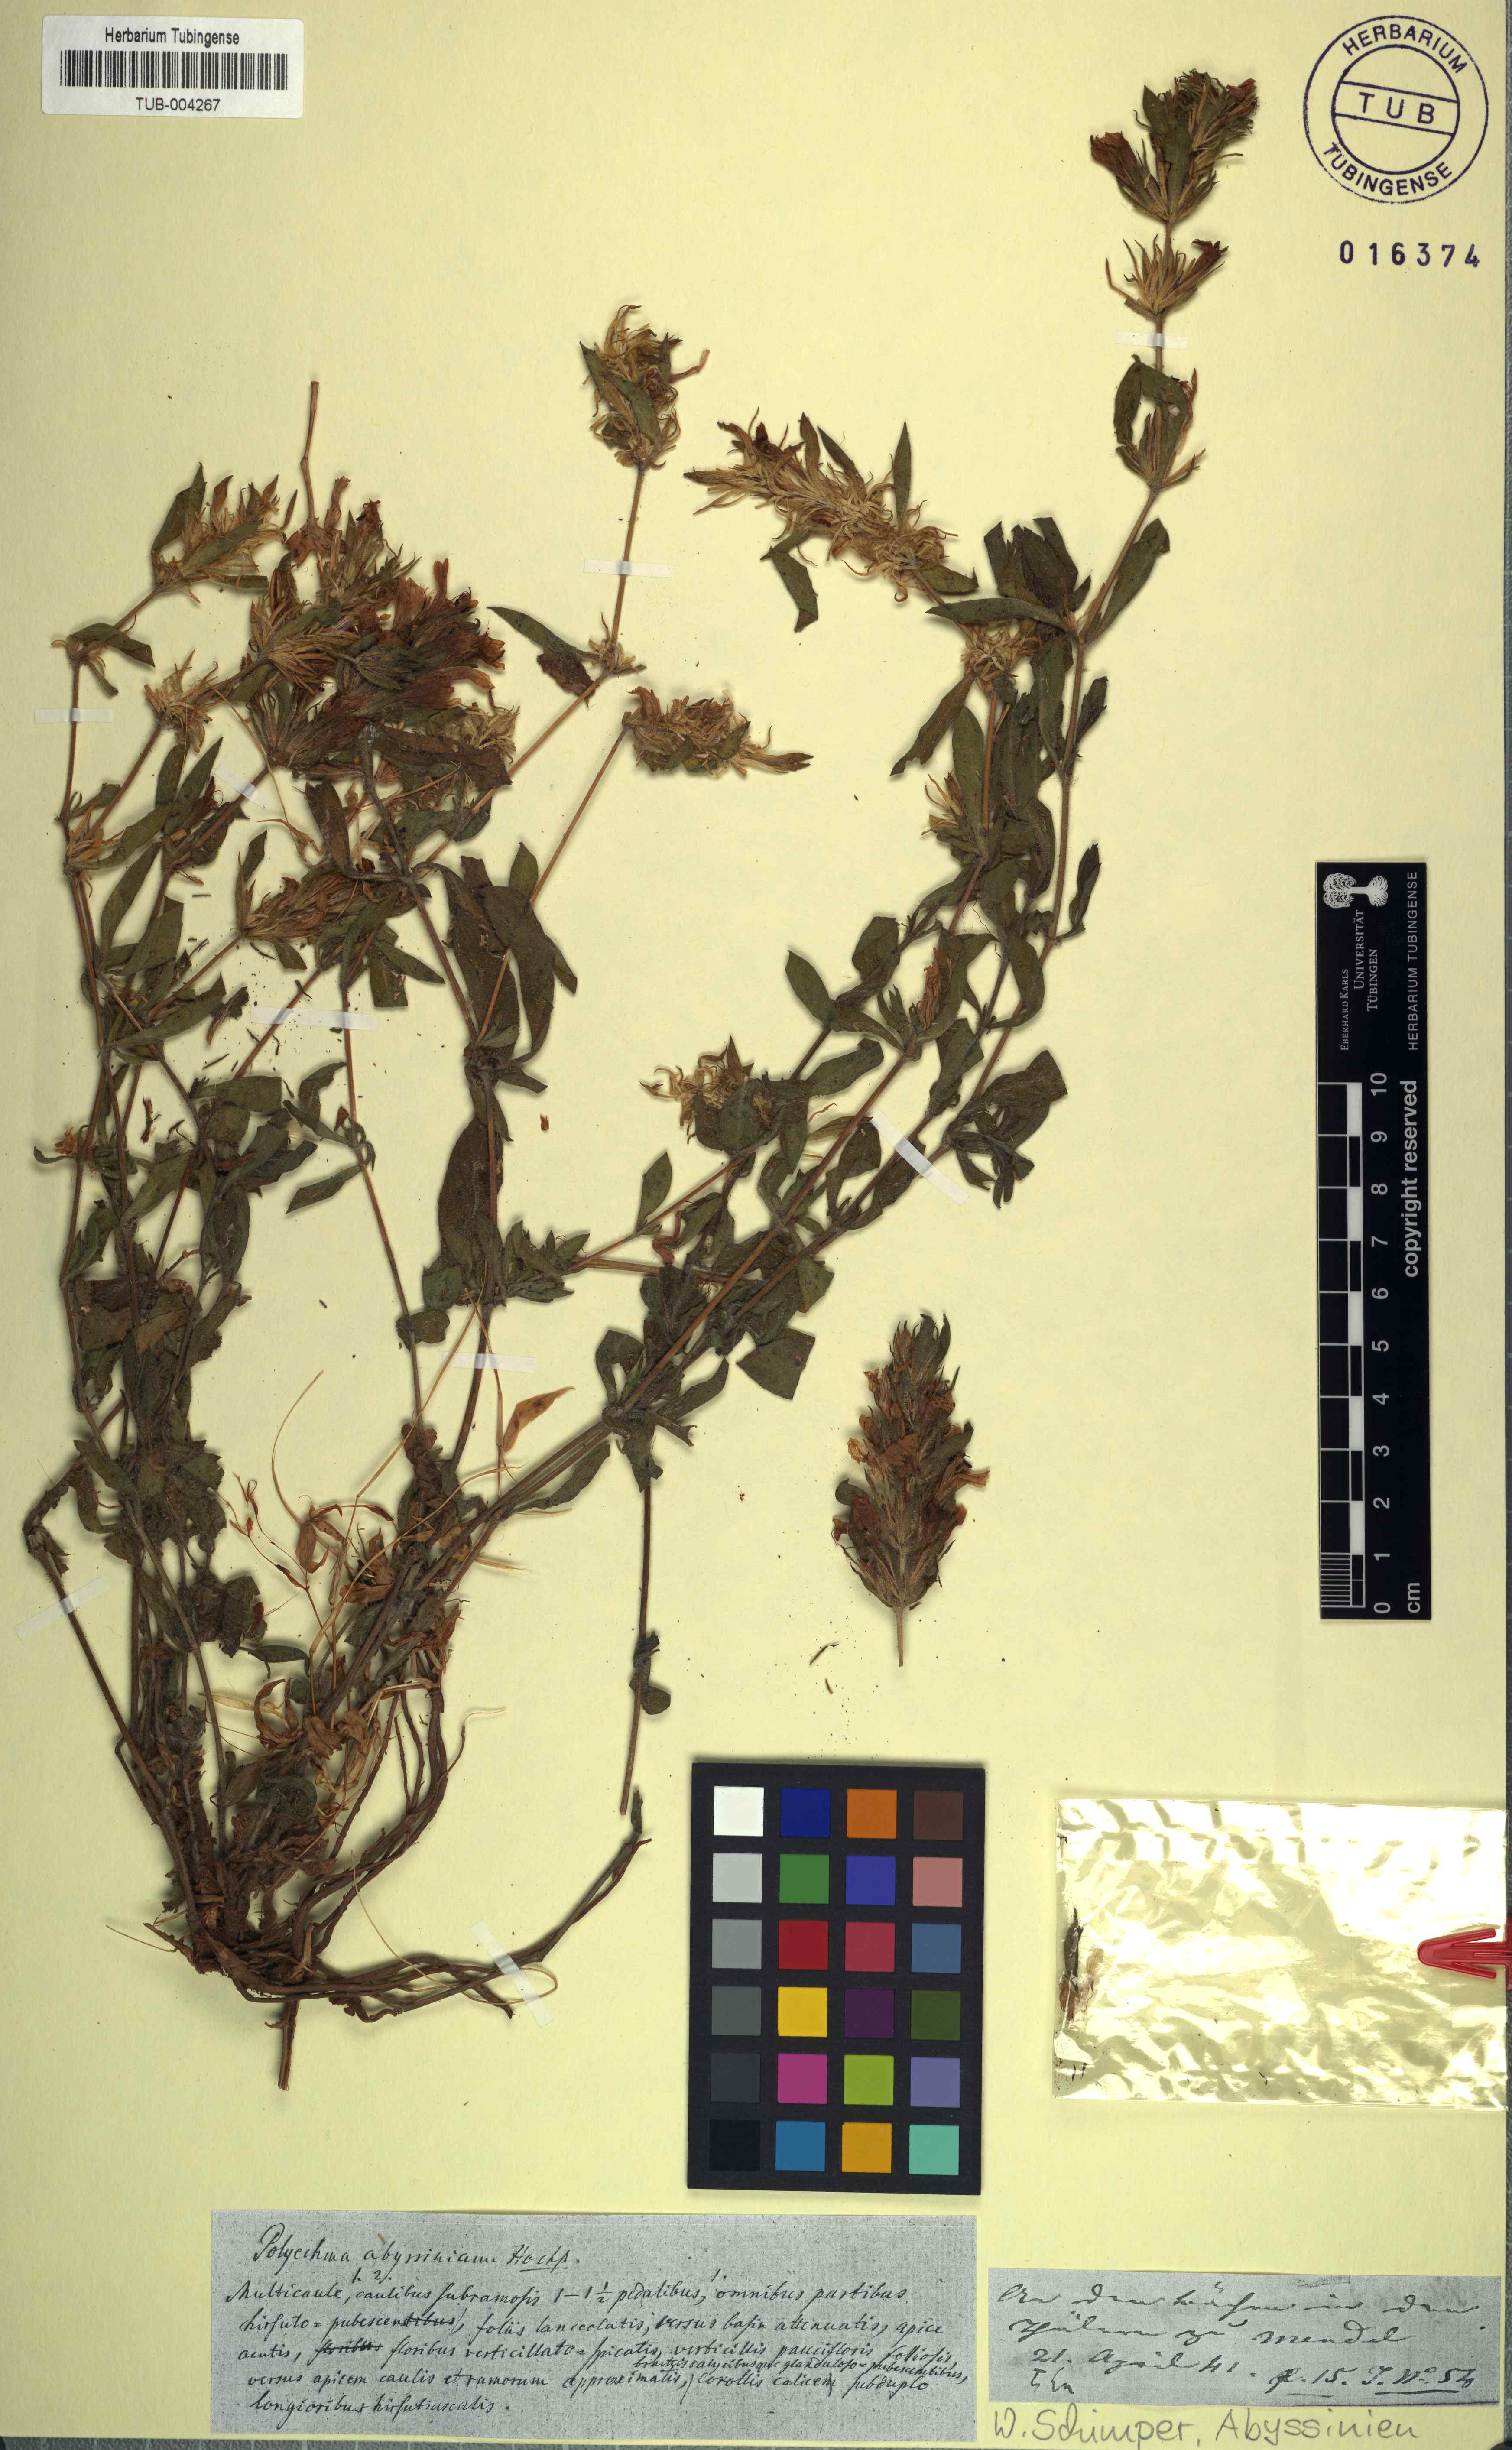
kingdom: Plantae
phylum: Tracheophyta
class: Magnoliopsida
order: Lamiales
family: Acanthaceae
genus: Hygrophila
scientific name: Hygrophila abyssinica
